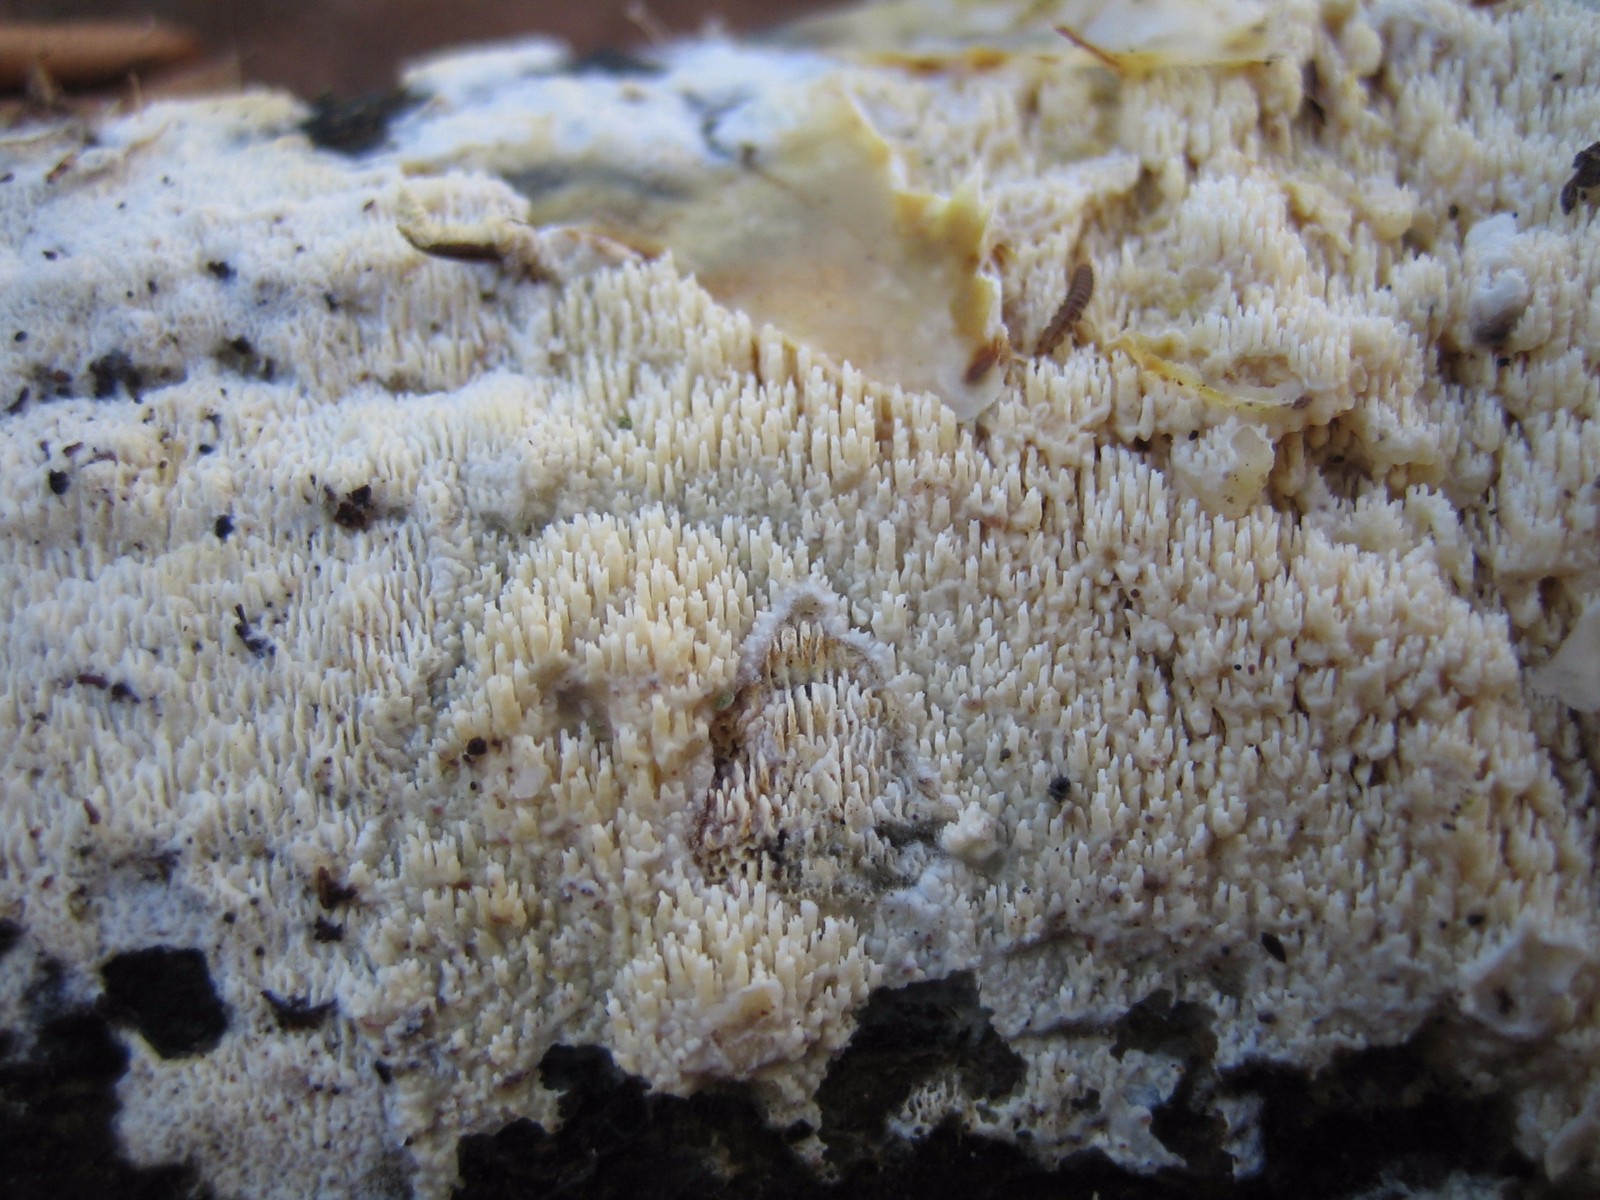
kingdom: Fungi
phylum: Basidiomycota
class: Agaricomycetes
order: Corticiales
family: Corticiaceae
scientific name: Corticiaceae
